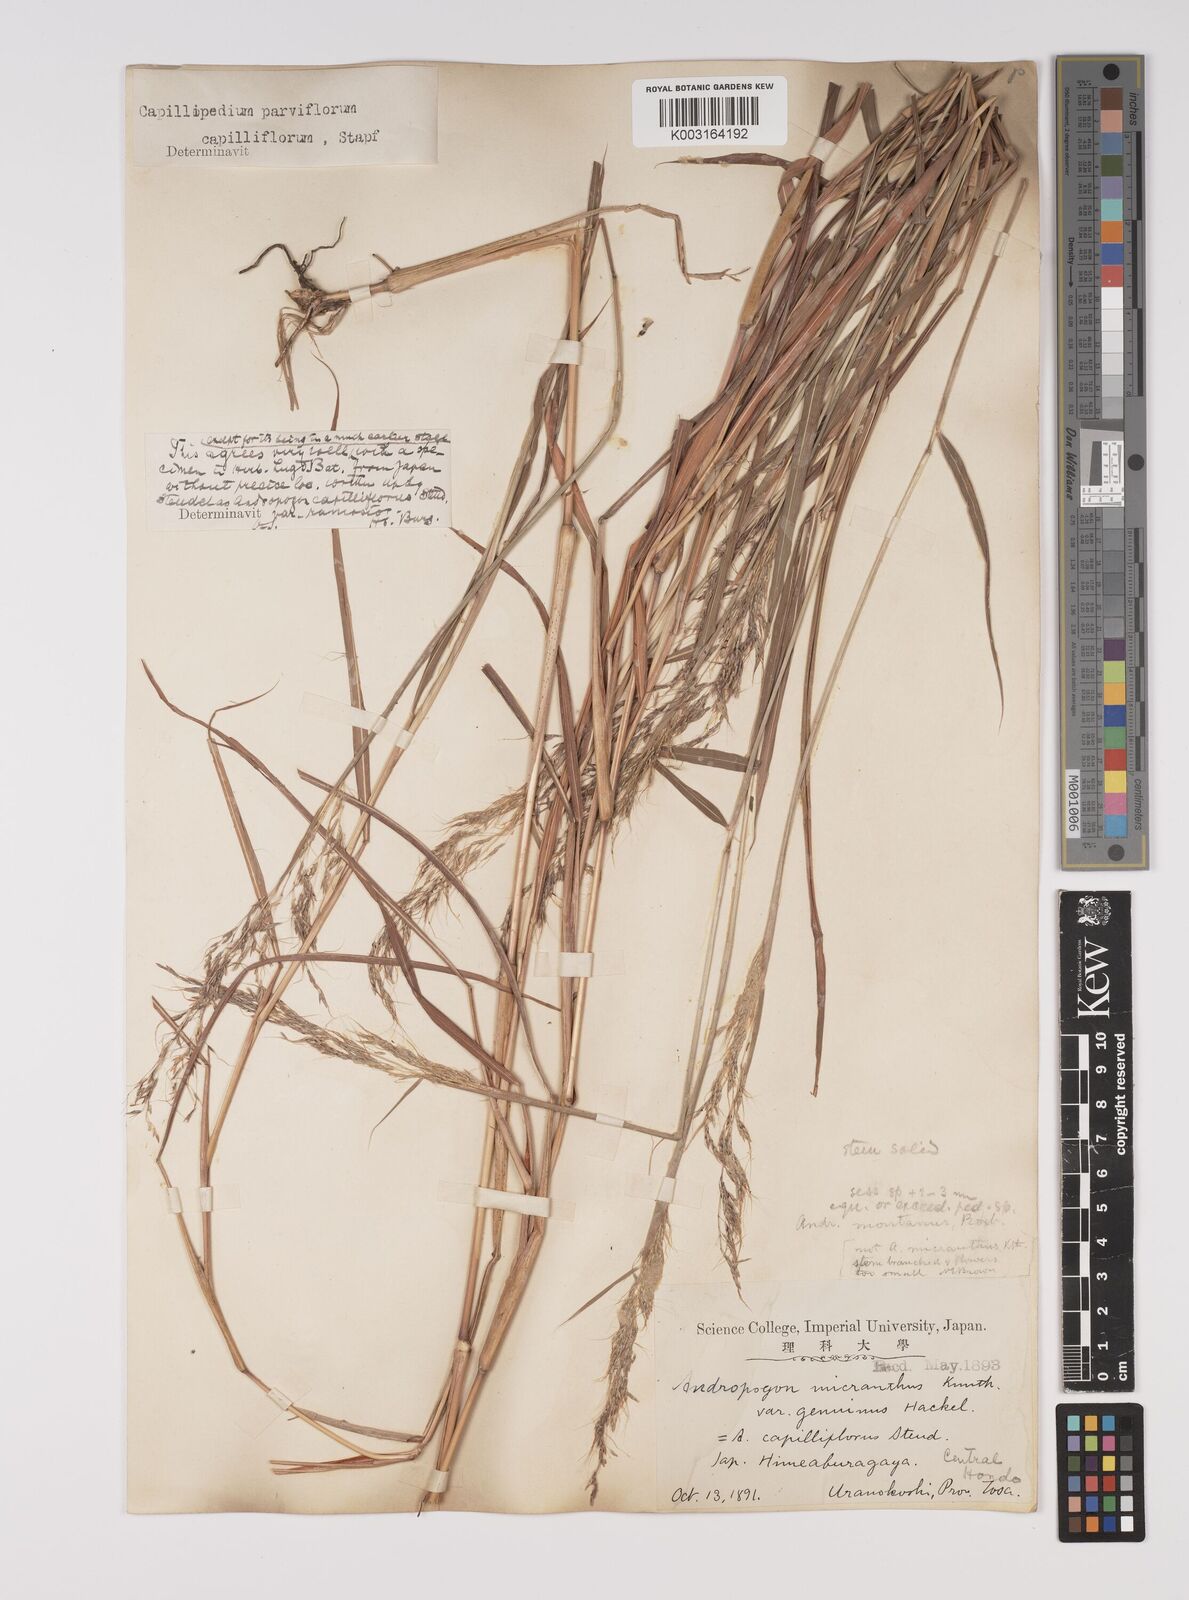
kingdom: Plantae
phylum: Tracheophyta
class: Liliopsida
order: Poales
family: Poaceae
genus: Capillipedium
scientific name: Capillipedium parviflorum
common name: Golden-beard
